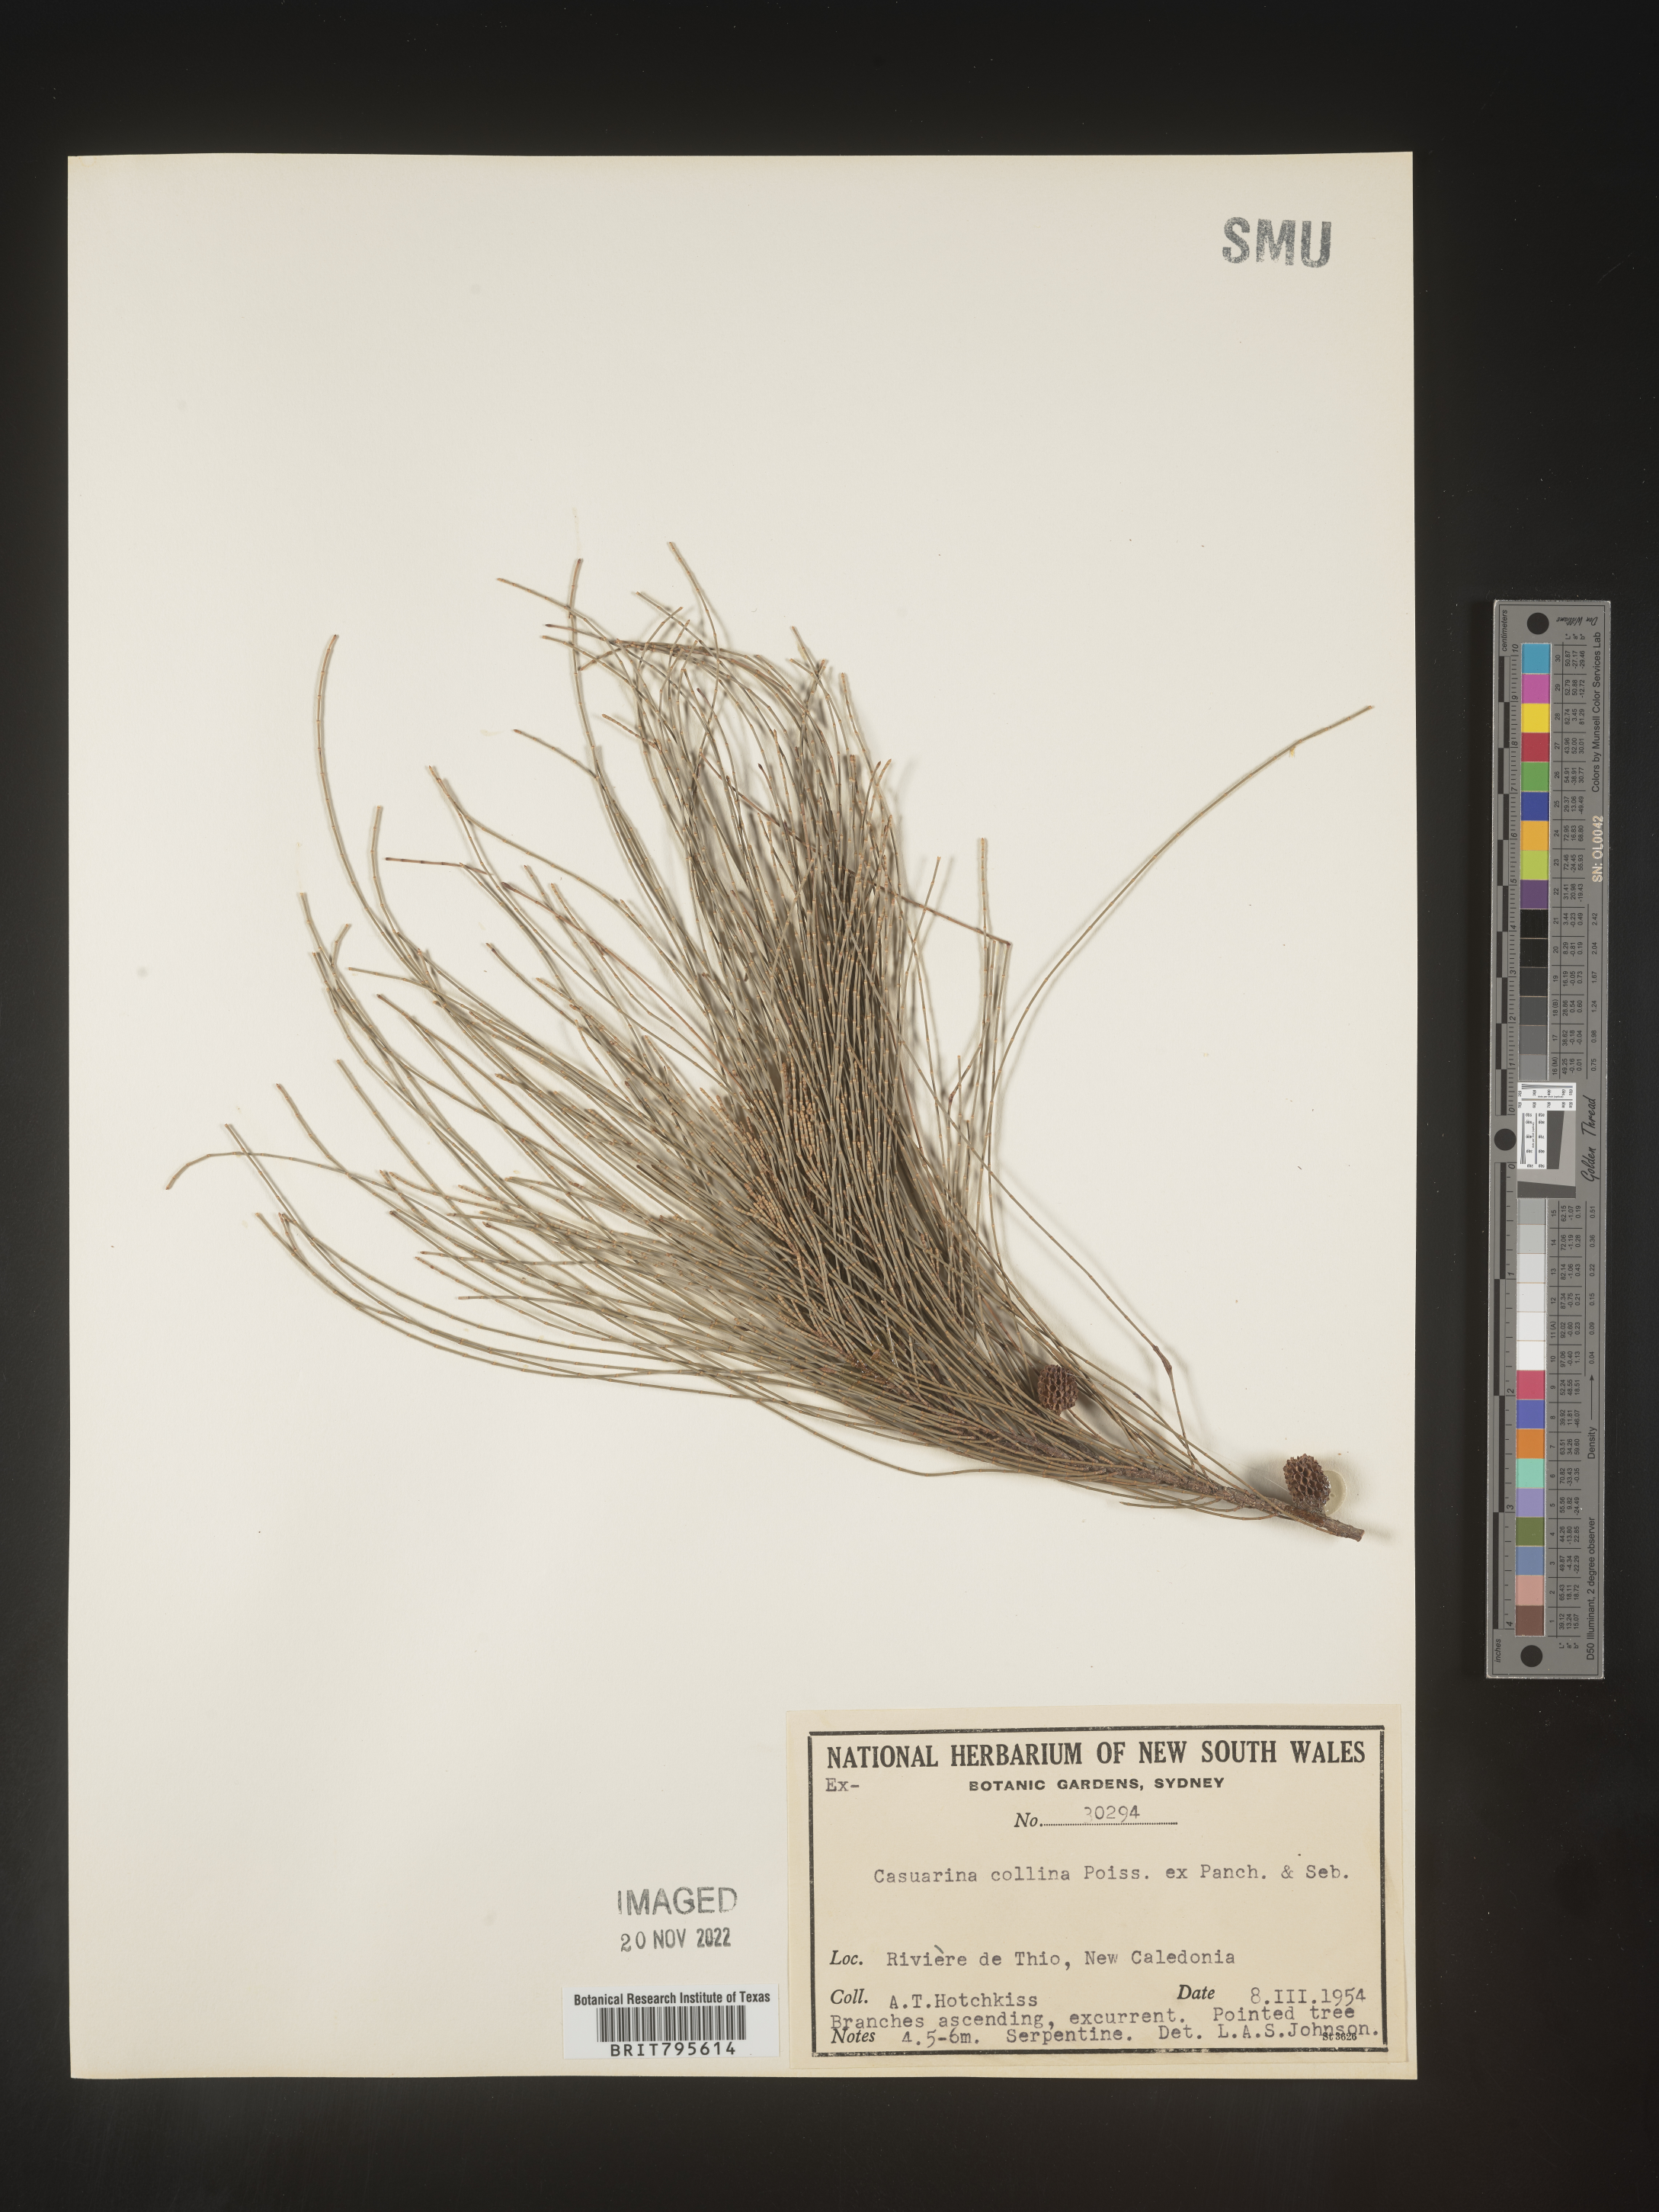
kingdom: Plantae
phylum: Tracheophyta
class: Magnoliopsida
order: Fagales
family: Casuarinaceae
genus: Casuarina
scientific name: Casuarina
